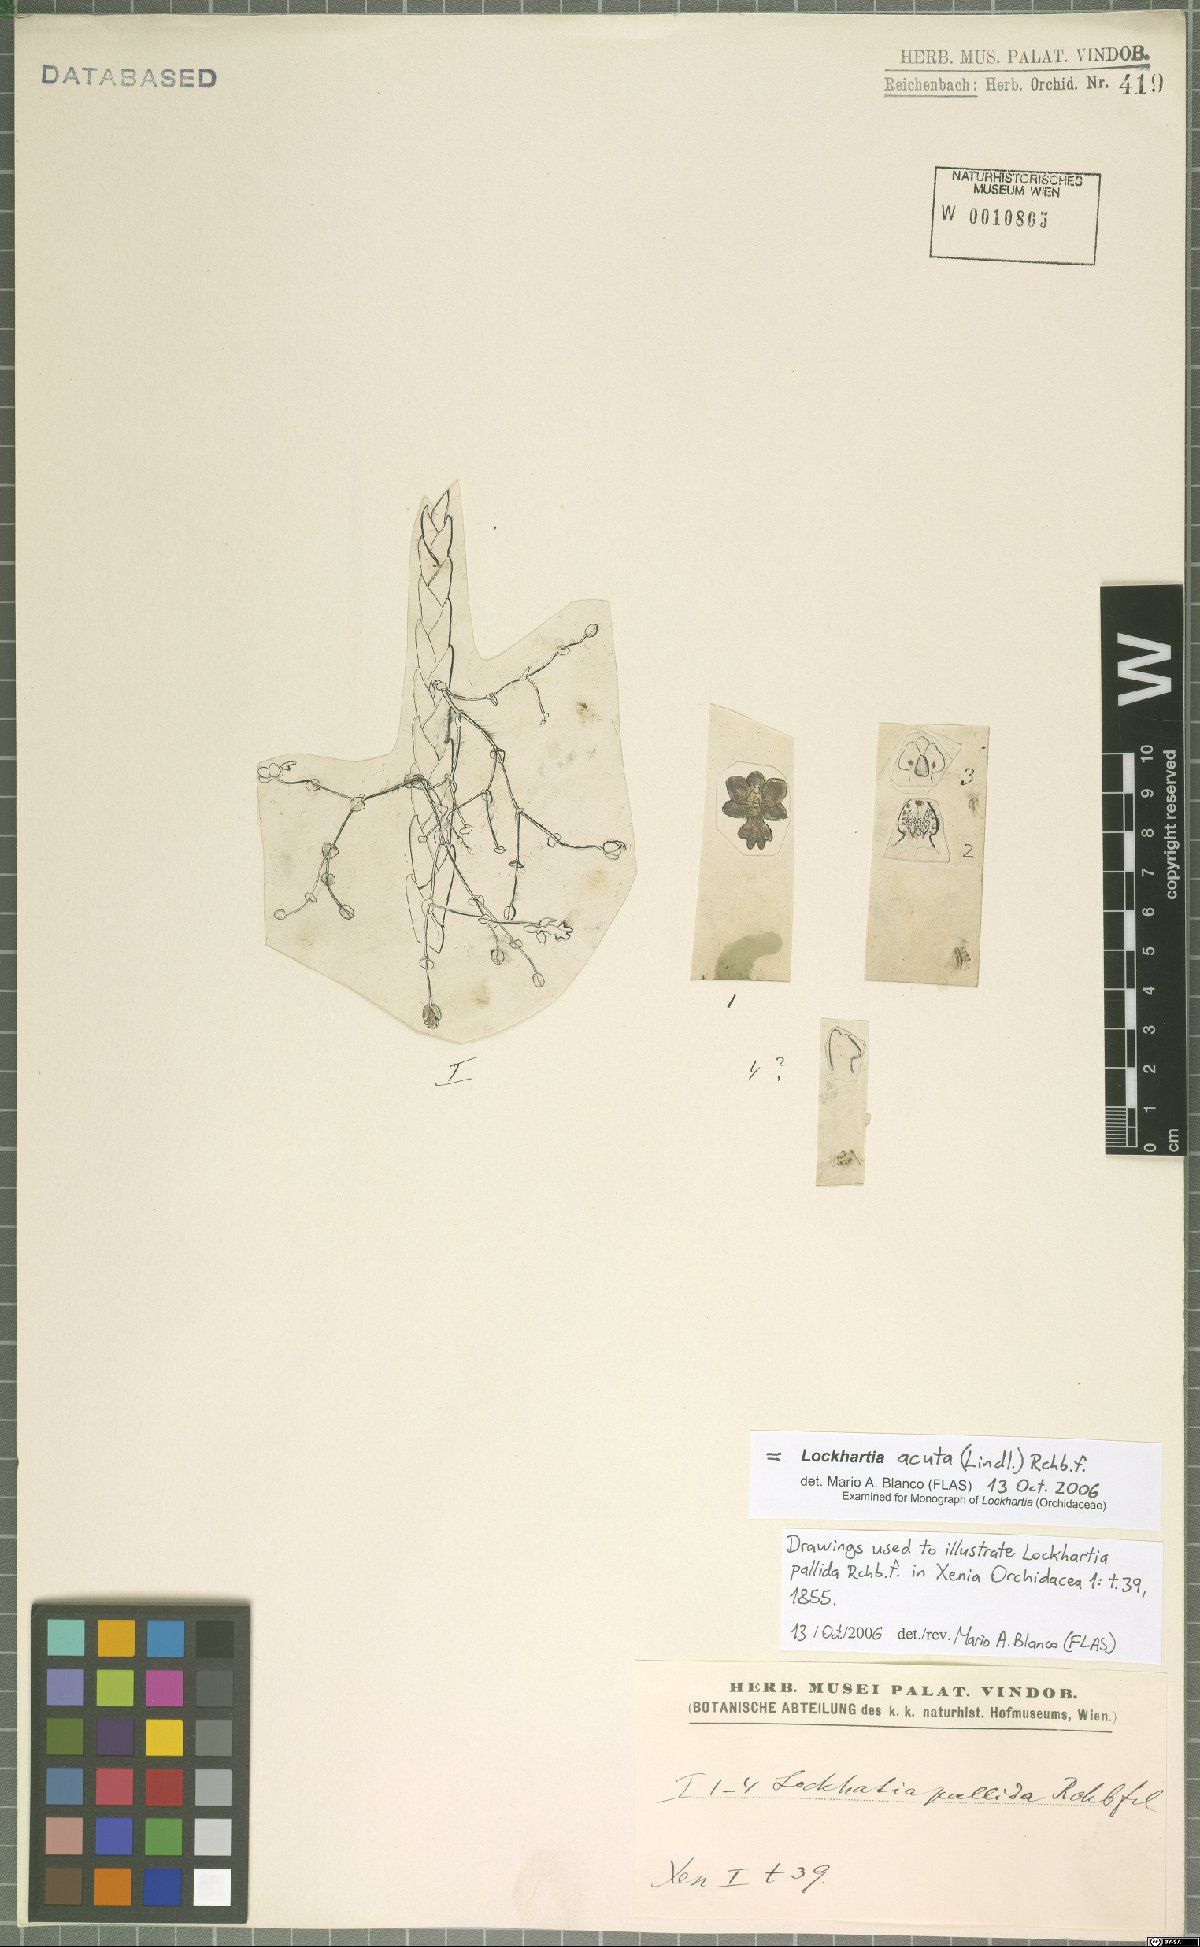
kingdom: Plantae
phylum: Tracheophyta
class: Liliopsida
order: Asparagales
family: Orchidaceae
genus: Lockhartia
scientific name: Lockhartia acuta
